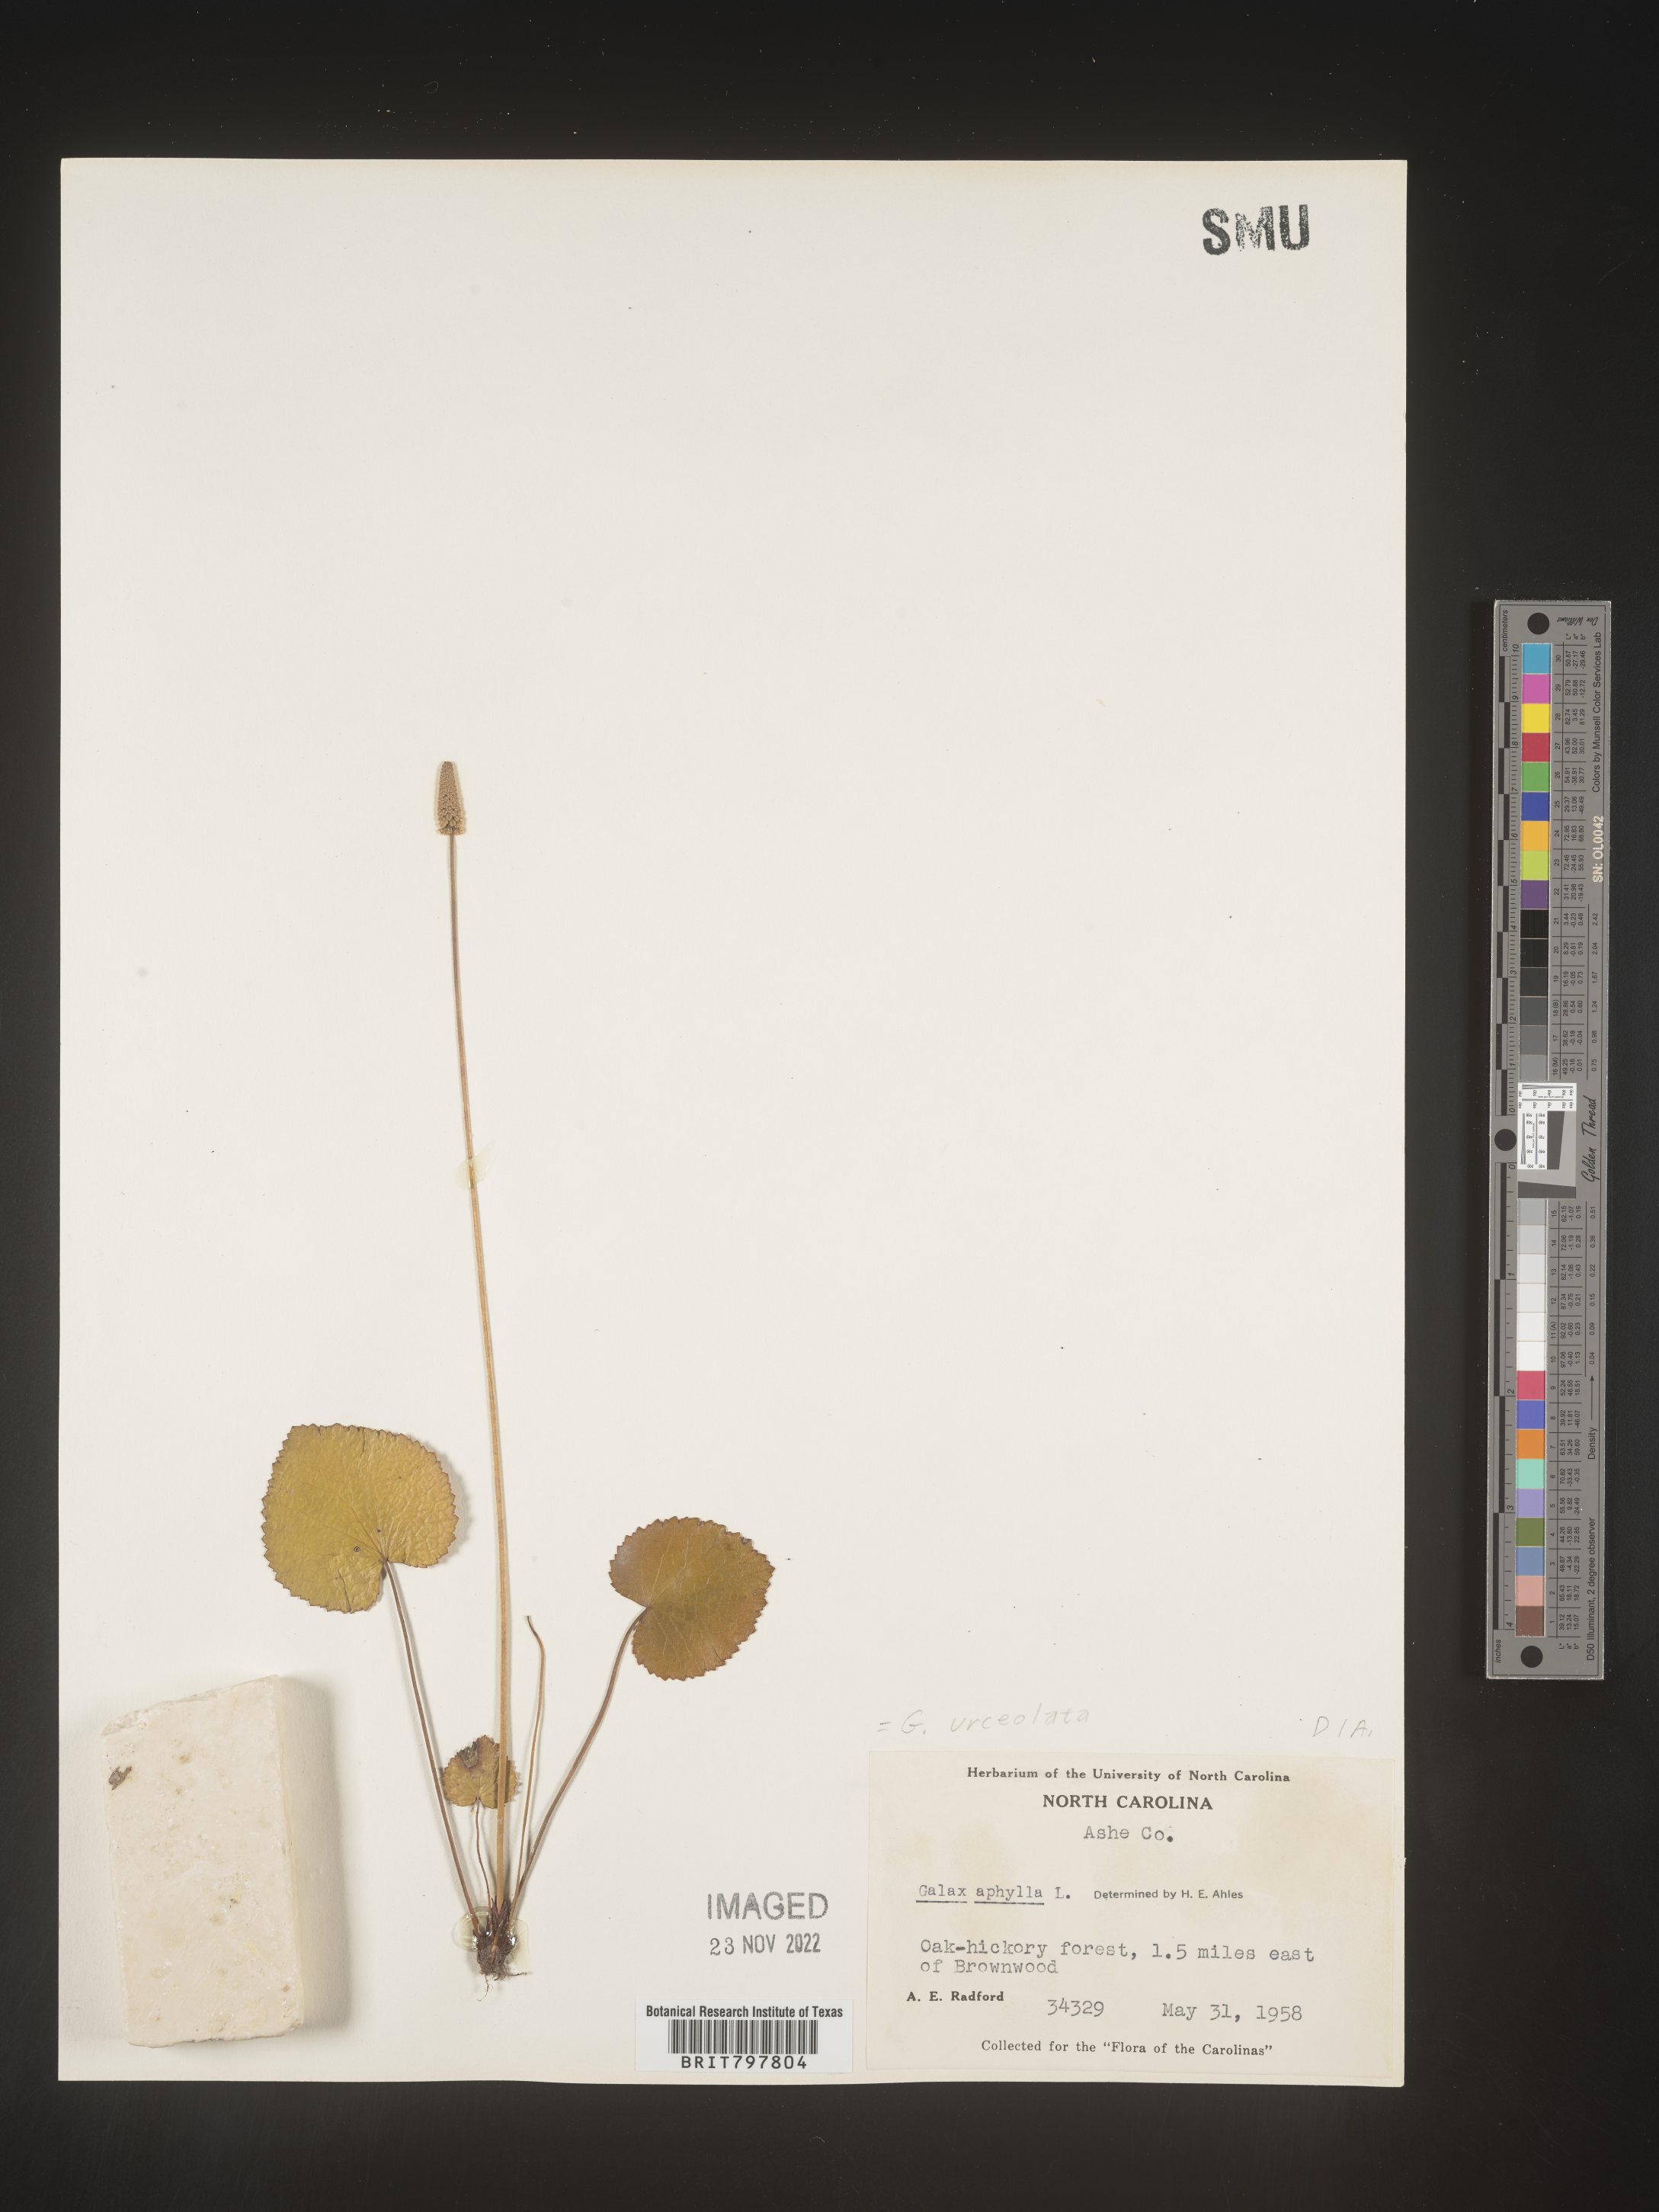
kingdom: Plantae
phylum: Tracheophyta
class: Magnoliopsida
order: Ericales
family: Diapensiaceae
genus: Galax
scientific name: Galax
